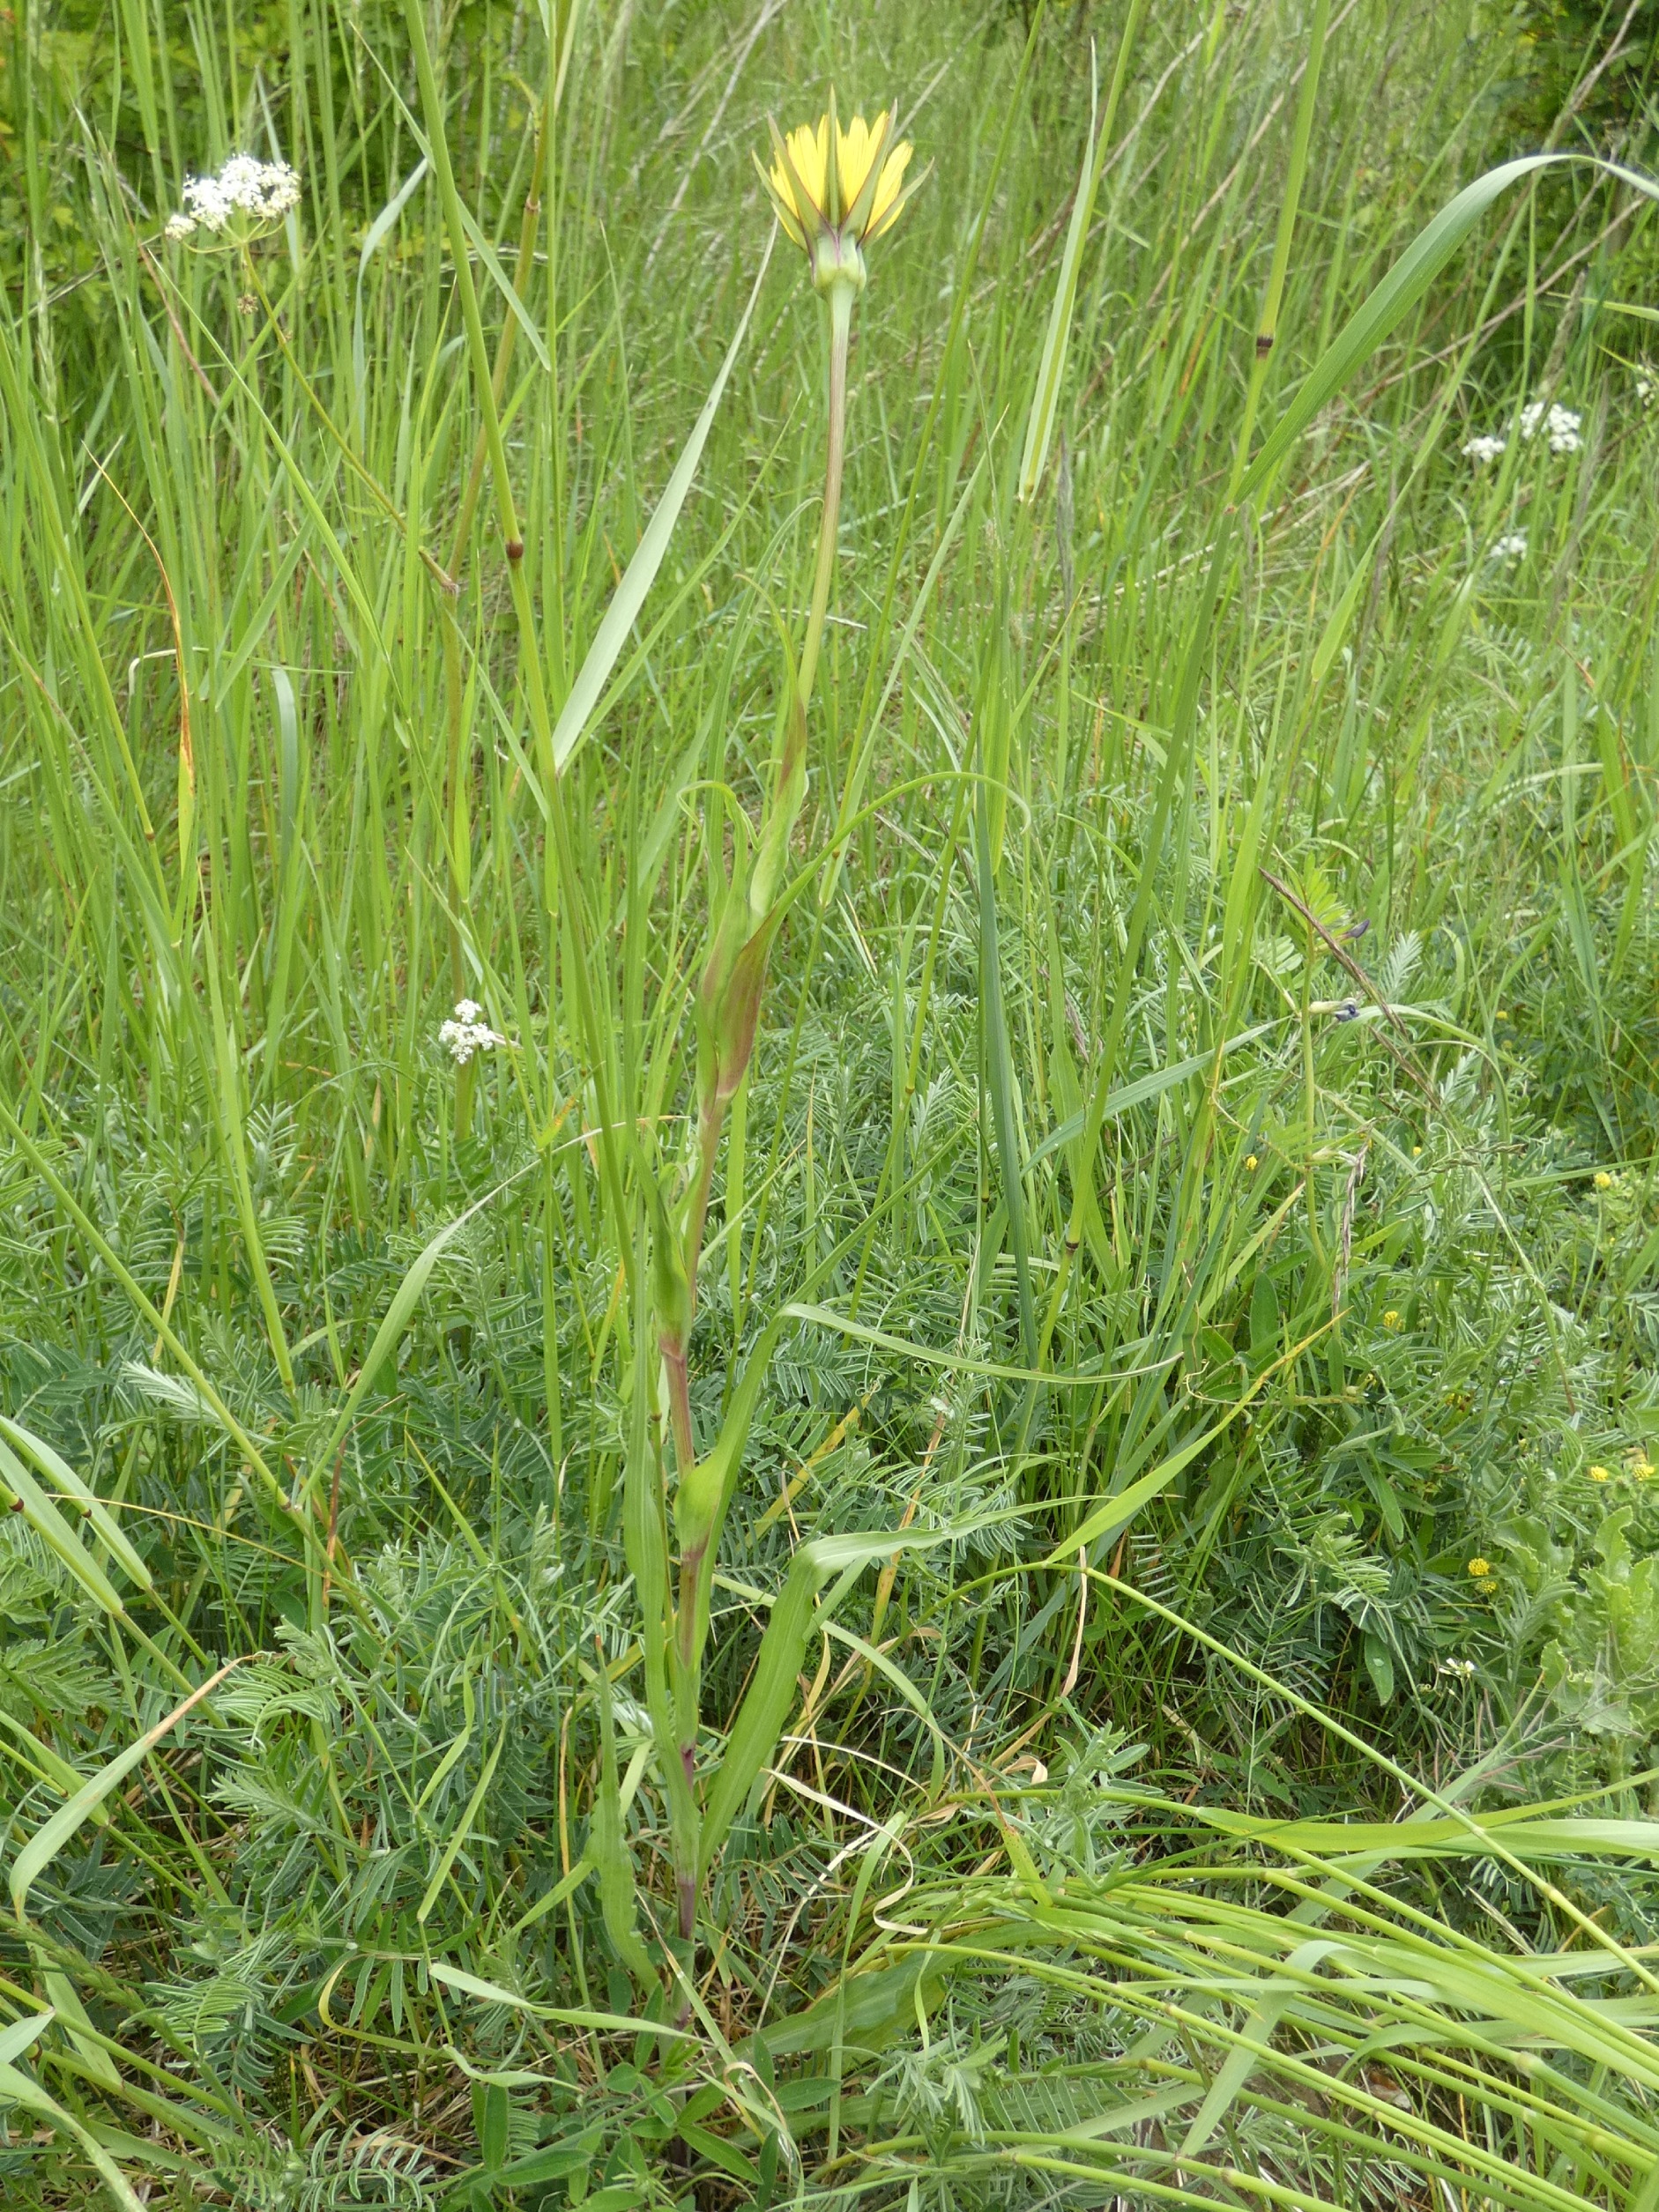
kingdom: Plantae
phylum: Tracheophyta
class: Magnoliopsida
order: Asterales
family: Asteraceae
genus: Tragopogon
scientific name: Tragopogon minor
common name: Småkronet gedeskæg
